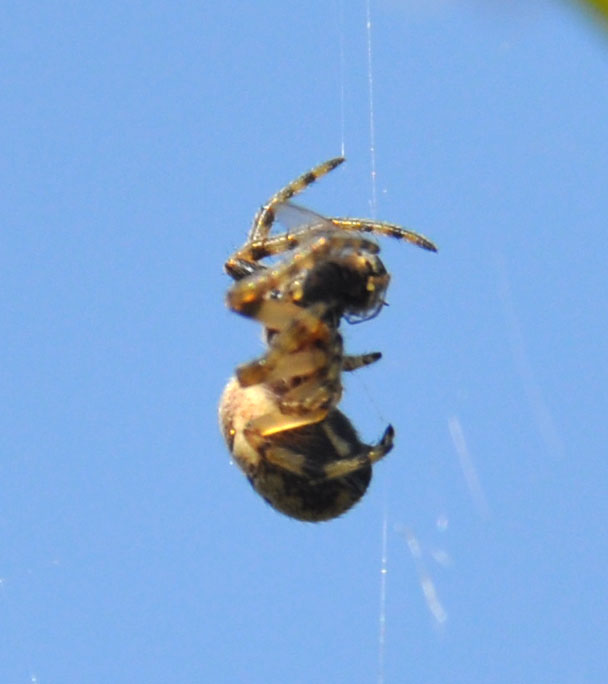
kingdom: Animalia
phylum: Arthropoda
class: Arachnida
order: Araneae
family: Araneidae
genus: Larinioides
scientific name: Larinioides cornutus
